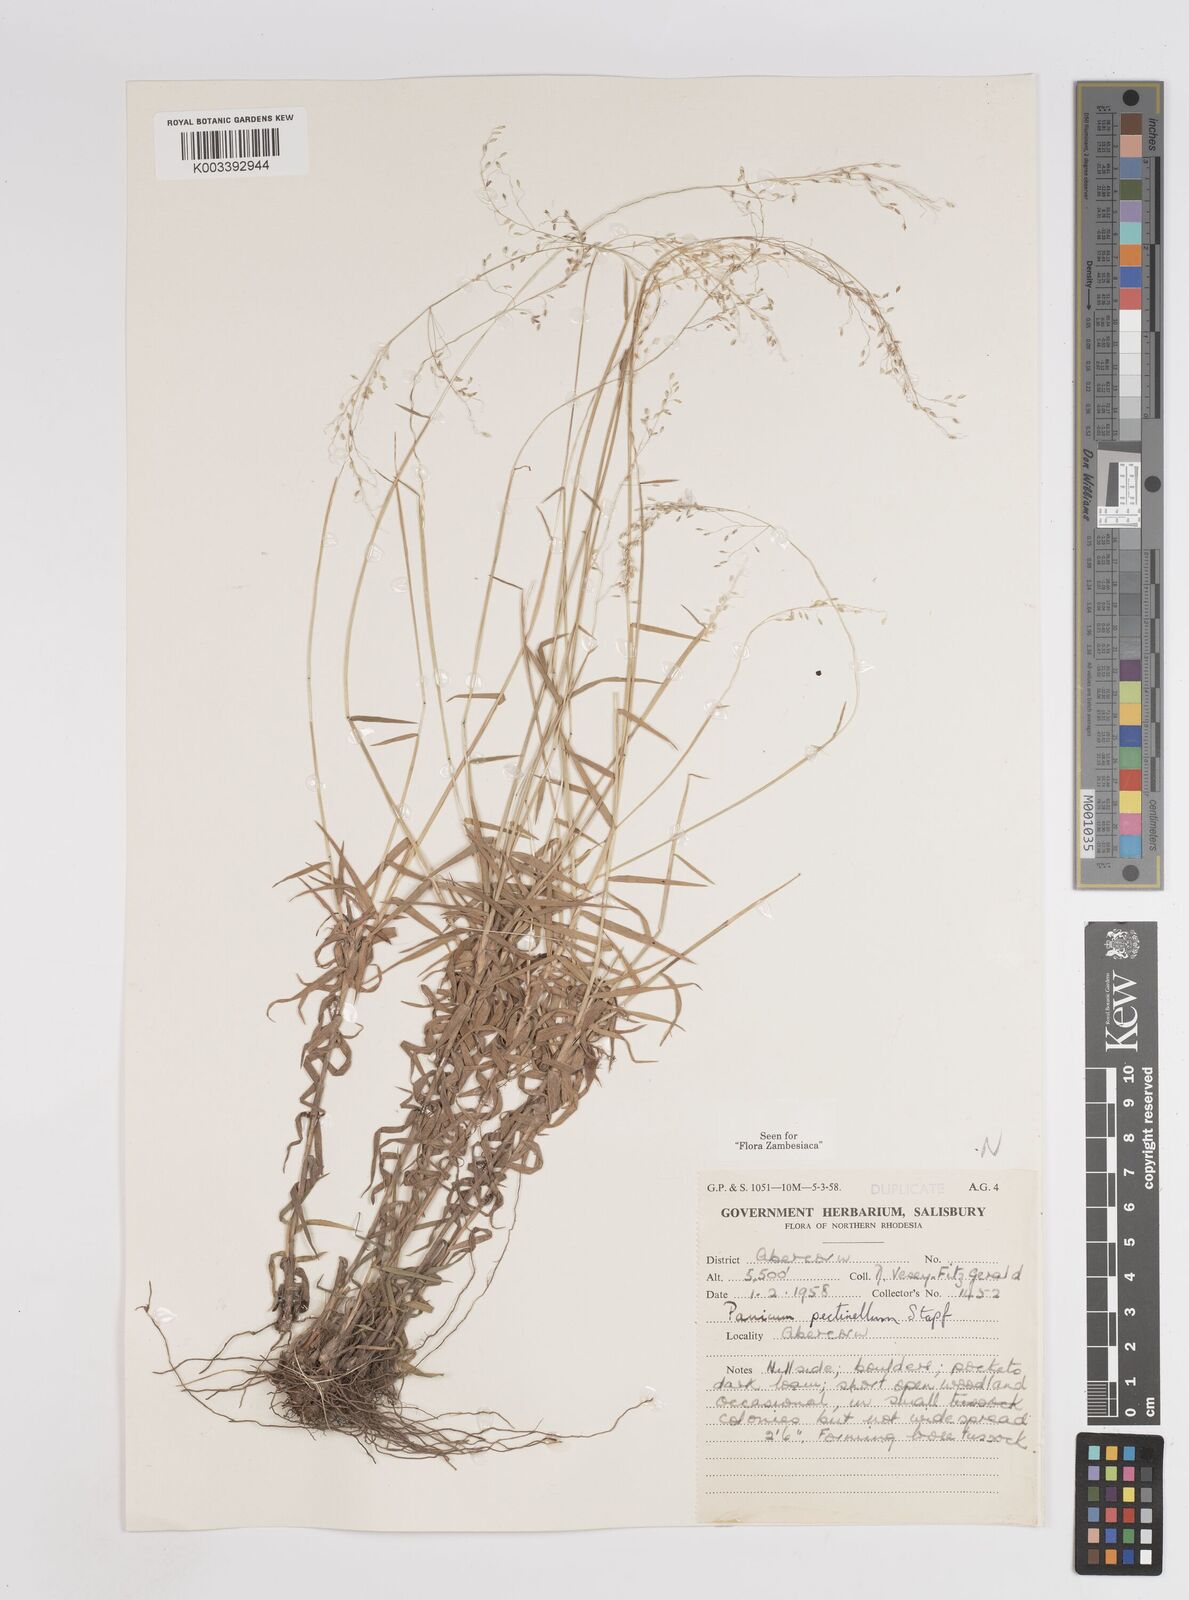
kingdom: Plantae
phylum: Tracheophyta
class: Liliopsida
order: Poales
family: Poaceae
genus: Adenochloa
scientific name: Adenochloa pectinella
